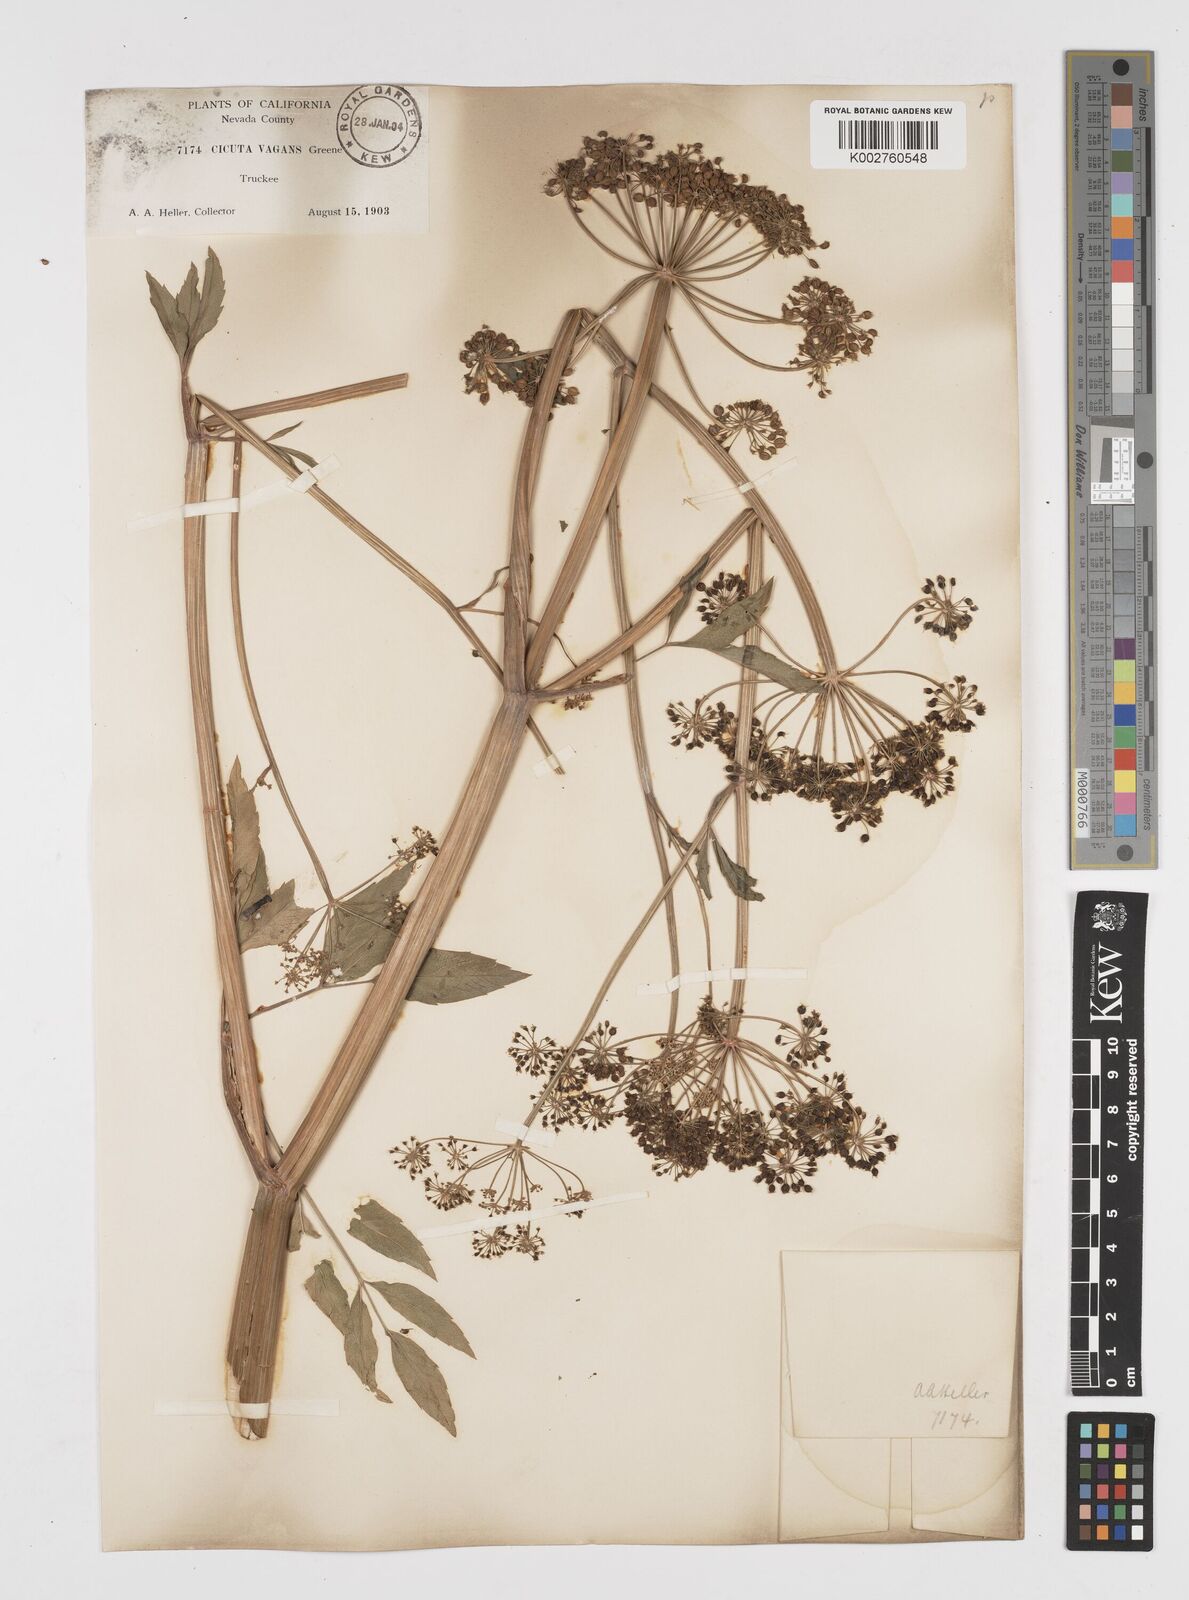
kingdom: Plantae
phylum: Tracheophyta
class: Magnoliopsida
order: Apiales
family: Apiaceae
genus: Cicuta
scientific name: Cicuta douglasii
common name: Western water-hemlock
